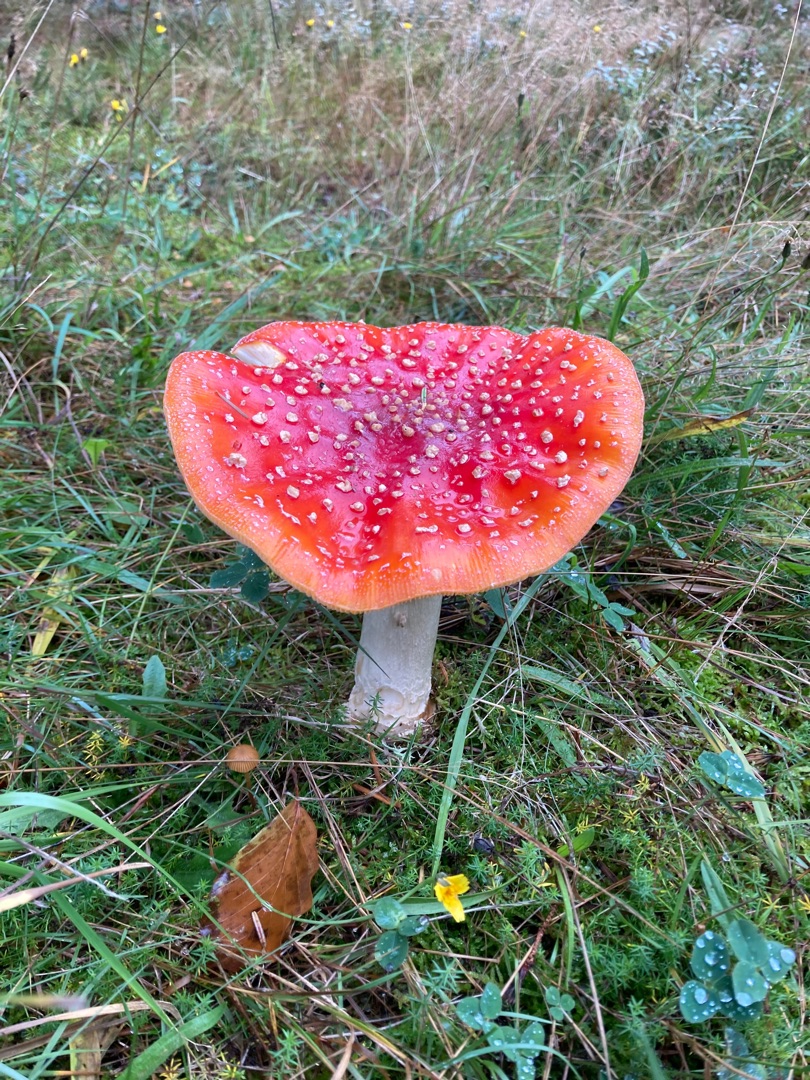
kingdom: Fungi
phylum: Basidiomycota
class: Agaricomycetes
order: Agaricales
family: Amanitaceae
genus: Amanita
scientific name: Amanita muscaria
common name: Rød fluesvamp
